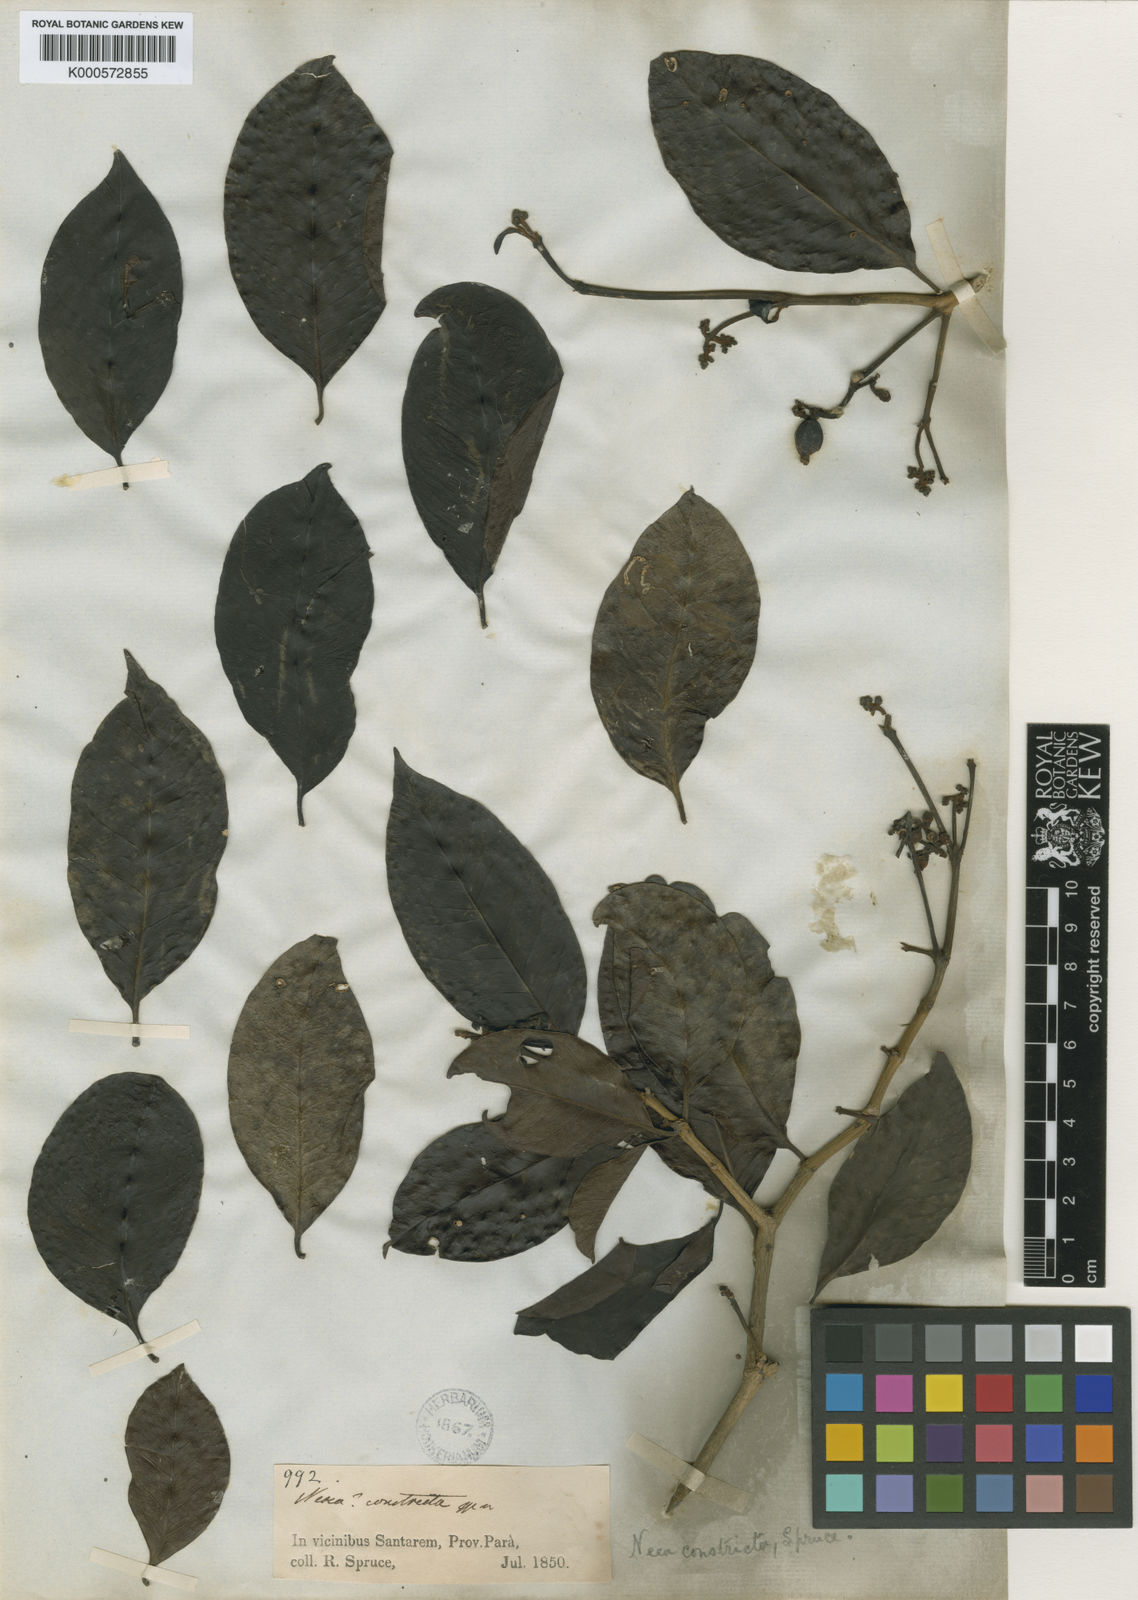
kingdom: Plantae
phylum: Tracheophyta
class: Magnoliopsida
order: Caryophyllales
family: Nyctaginaceae
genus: Neea
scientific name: Neea constricta
